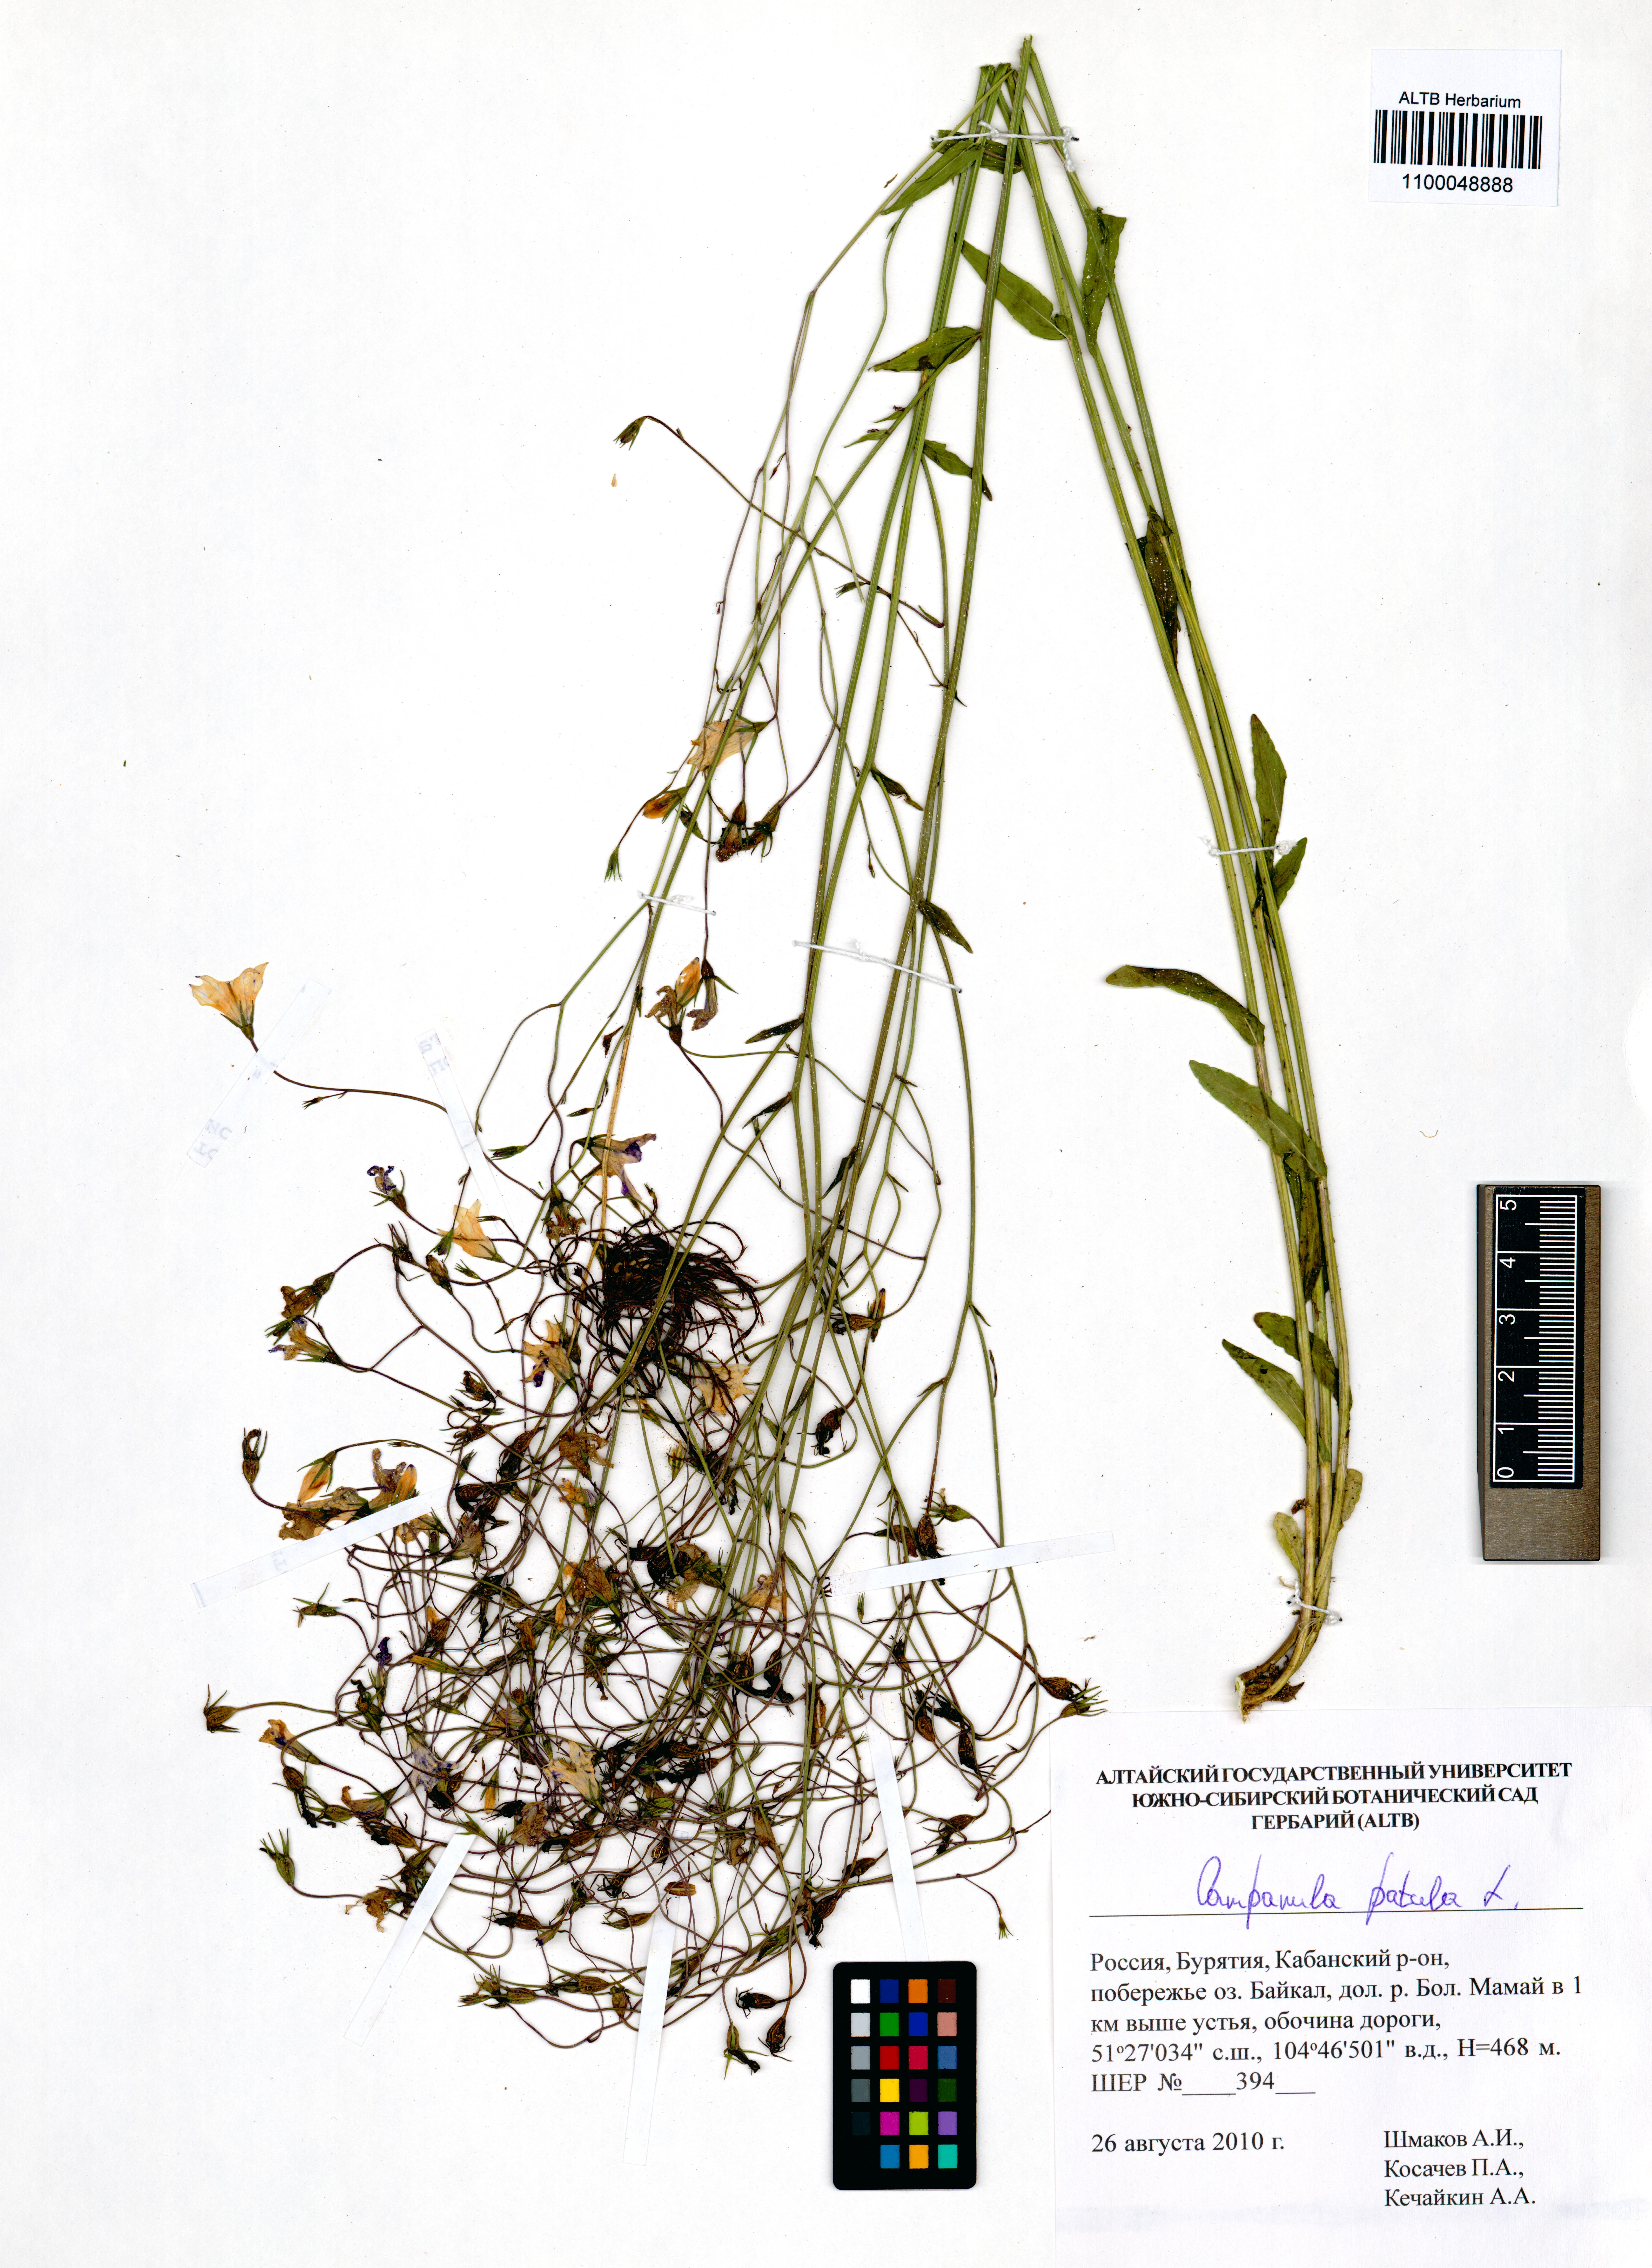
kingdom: Plantae
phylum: Tracheophyta
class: Magnoliopsida
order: Asterales
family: Campanulaceae
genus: Campanula
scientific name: Campanula patula
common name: Spreading bellflower
